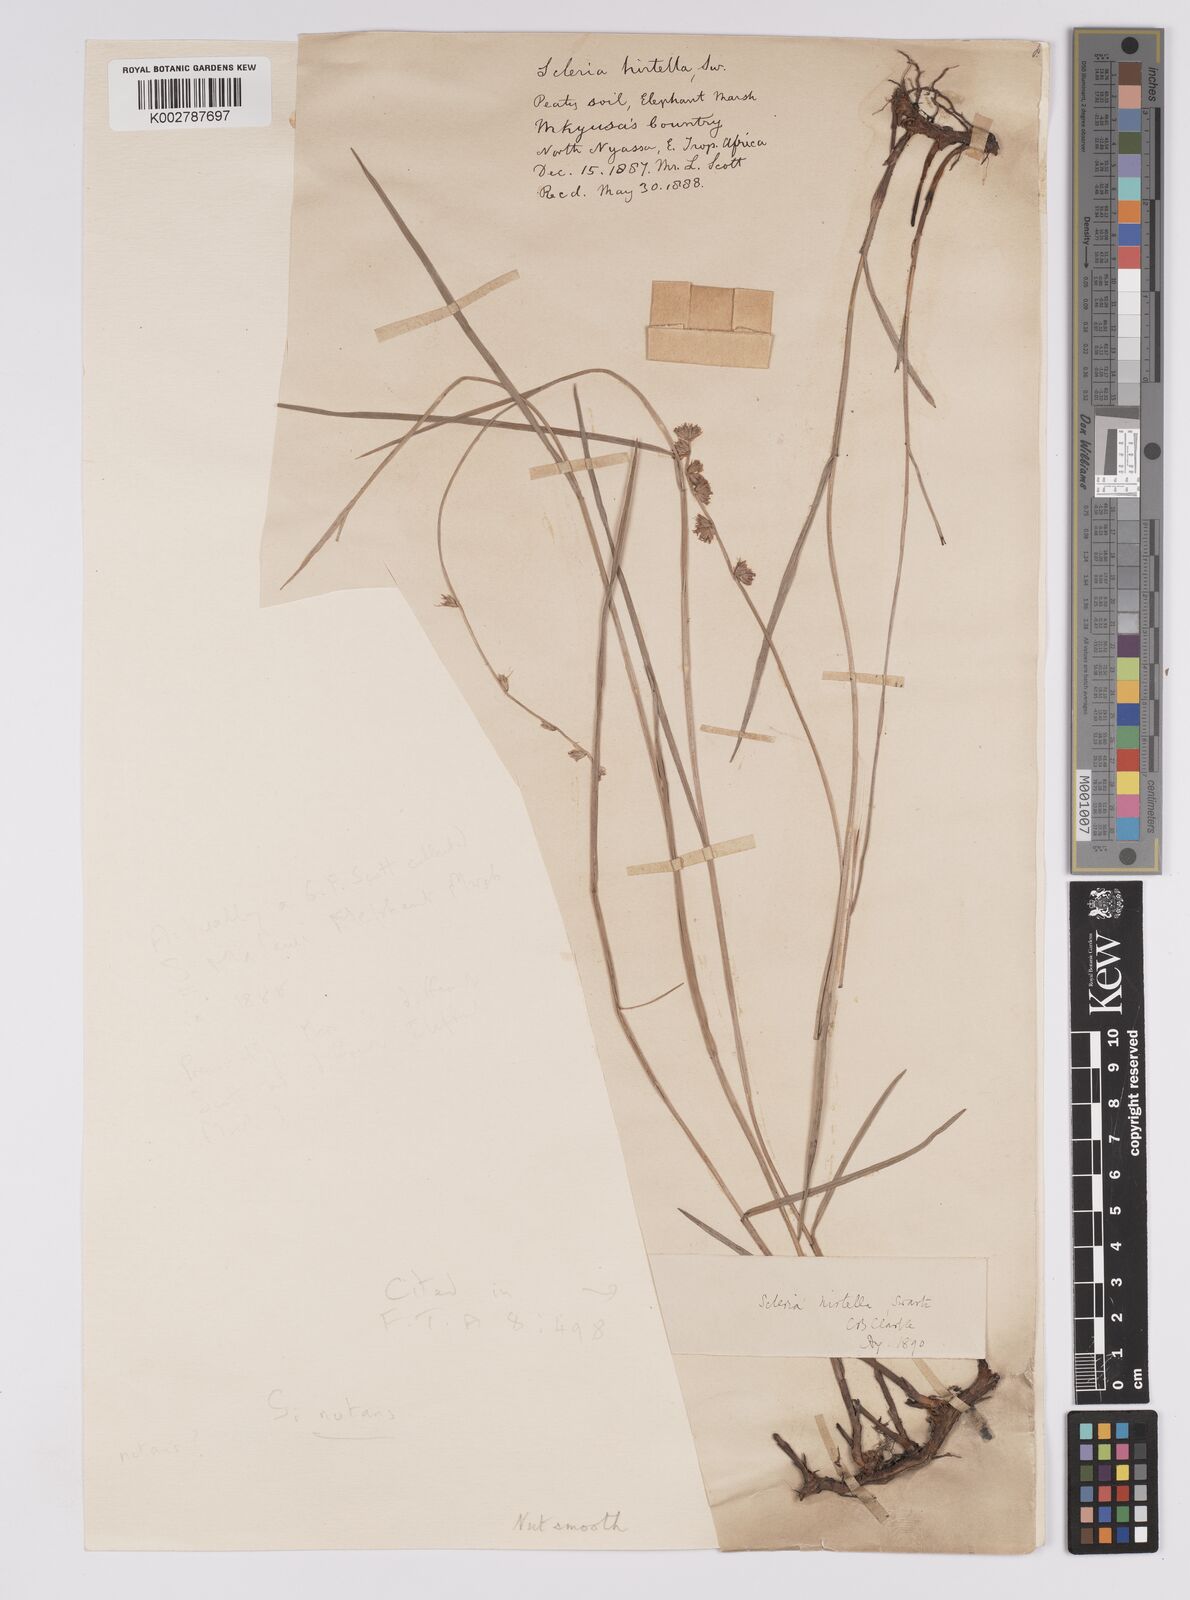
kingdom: Plantae
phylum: Tracheophyta
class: Liliopsida
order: Poales
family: Cyperaceae
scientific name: Cyperaceae
